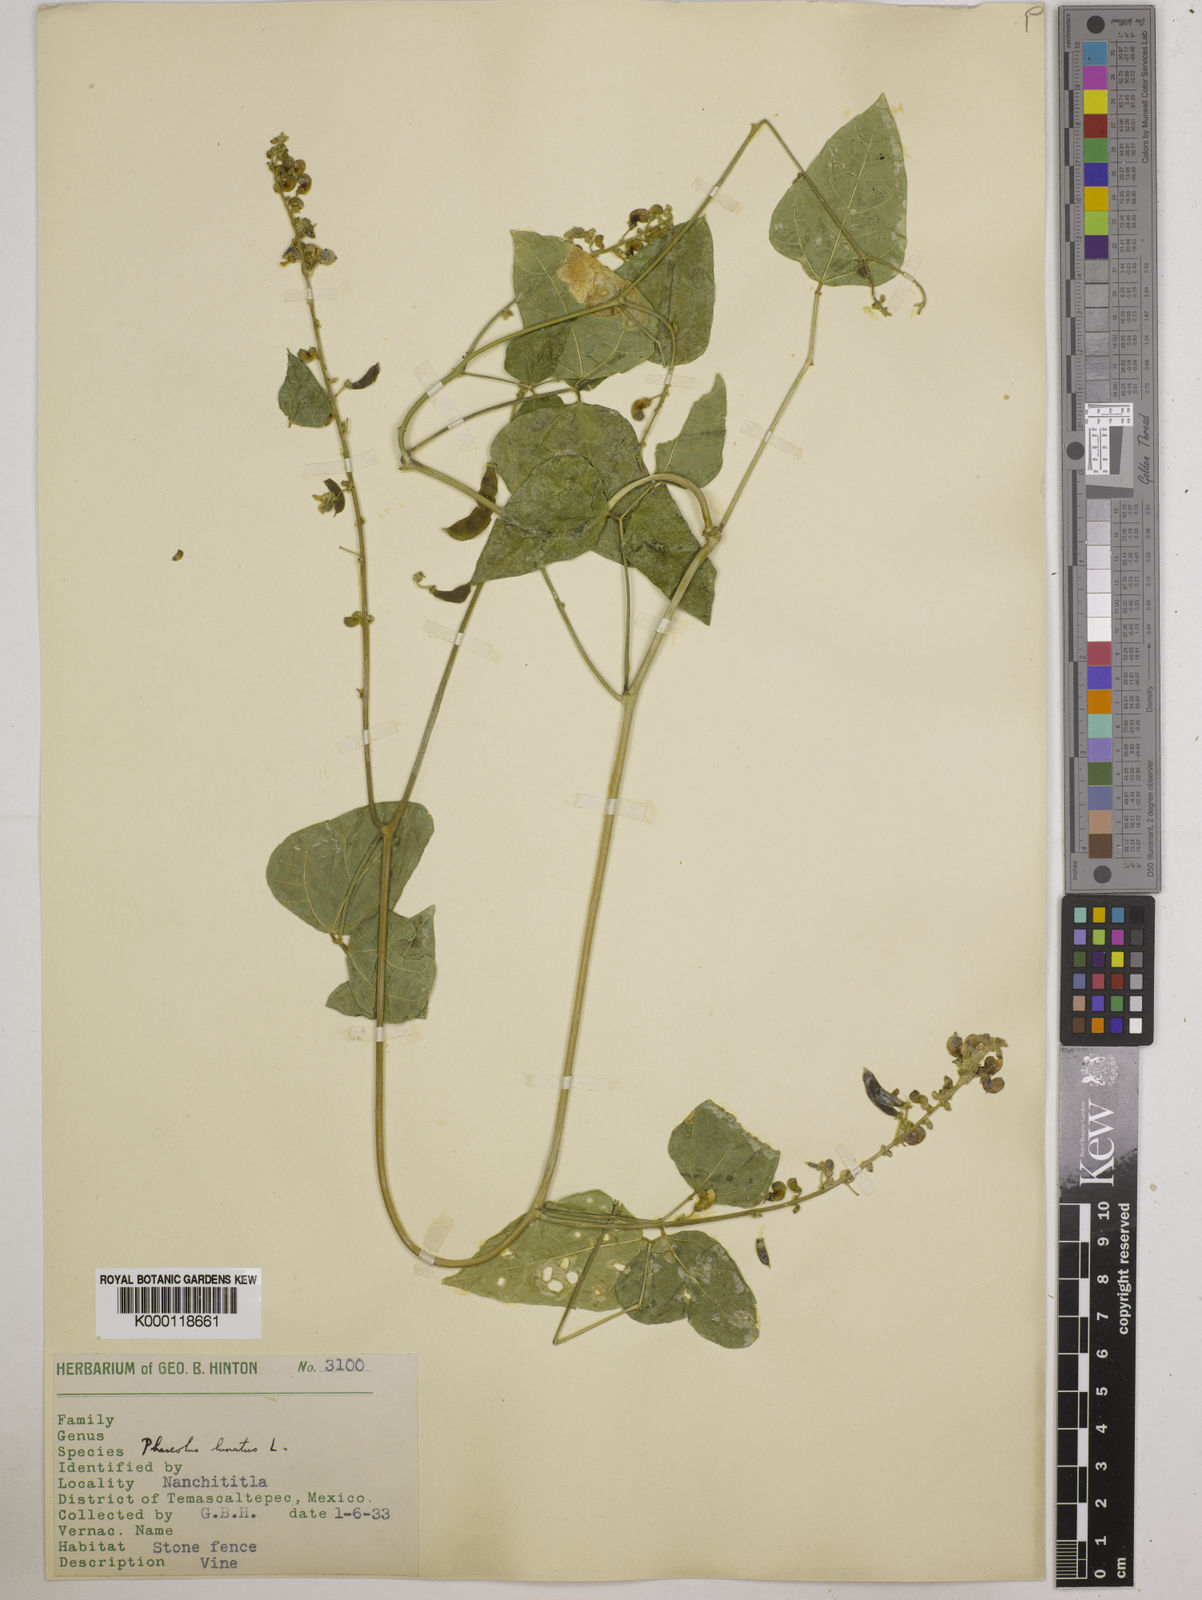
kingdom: Plantae
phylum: Tracheophyta
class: Magnoliopsida
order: Fabales
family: Fabaceae
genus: Phaseolus
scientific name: Phaseolus lunatus
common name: Sieva bean
